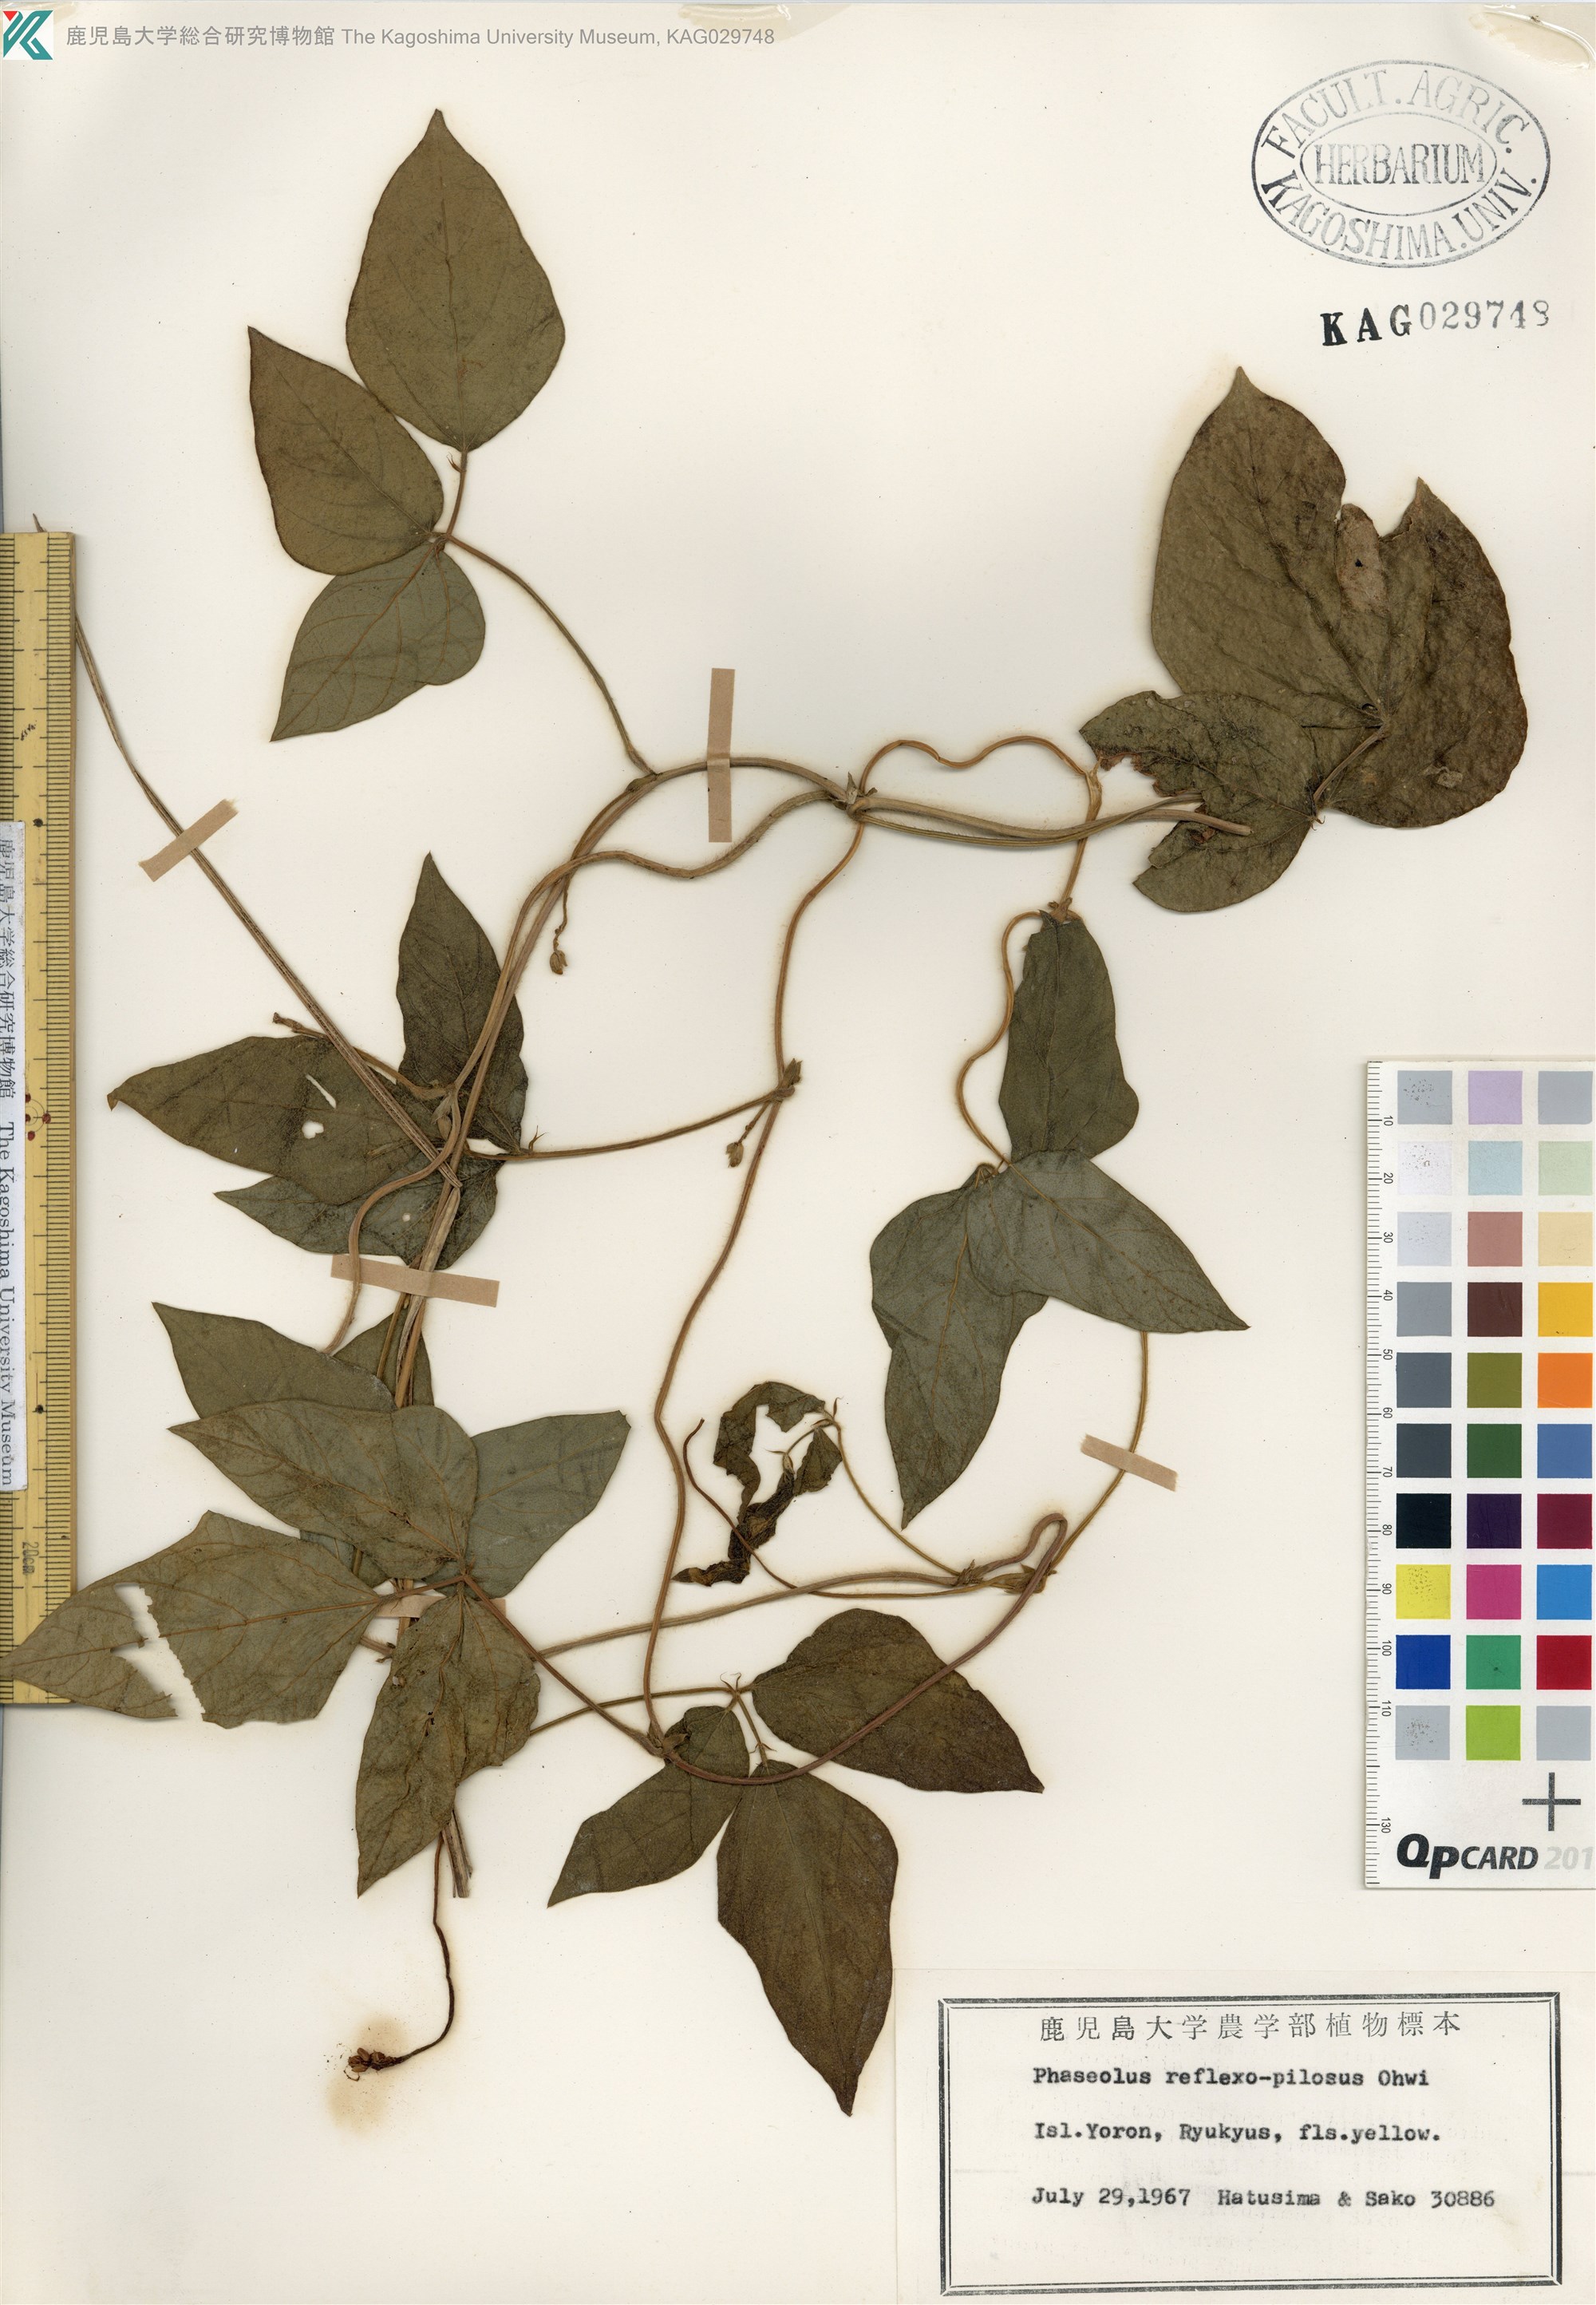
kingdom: Plantae
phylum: Tracheophyta
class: Magnoliopsida
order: Fabales
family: Fabaceae
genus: Vigna
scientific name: Vigna reflexopilosa
